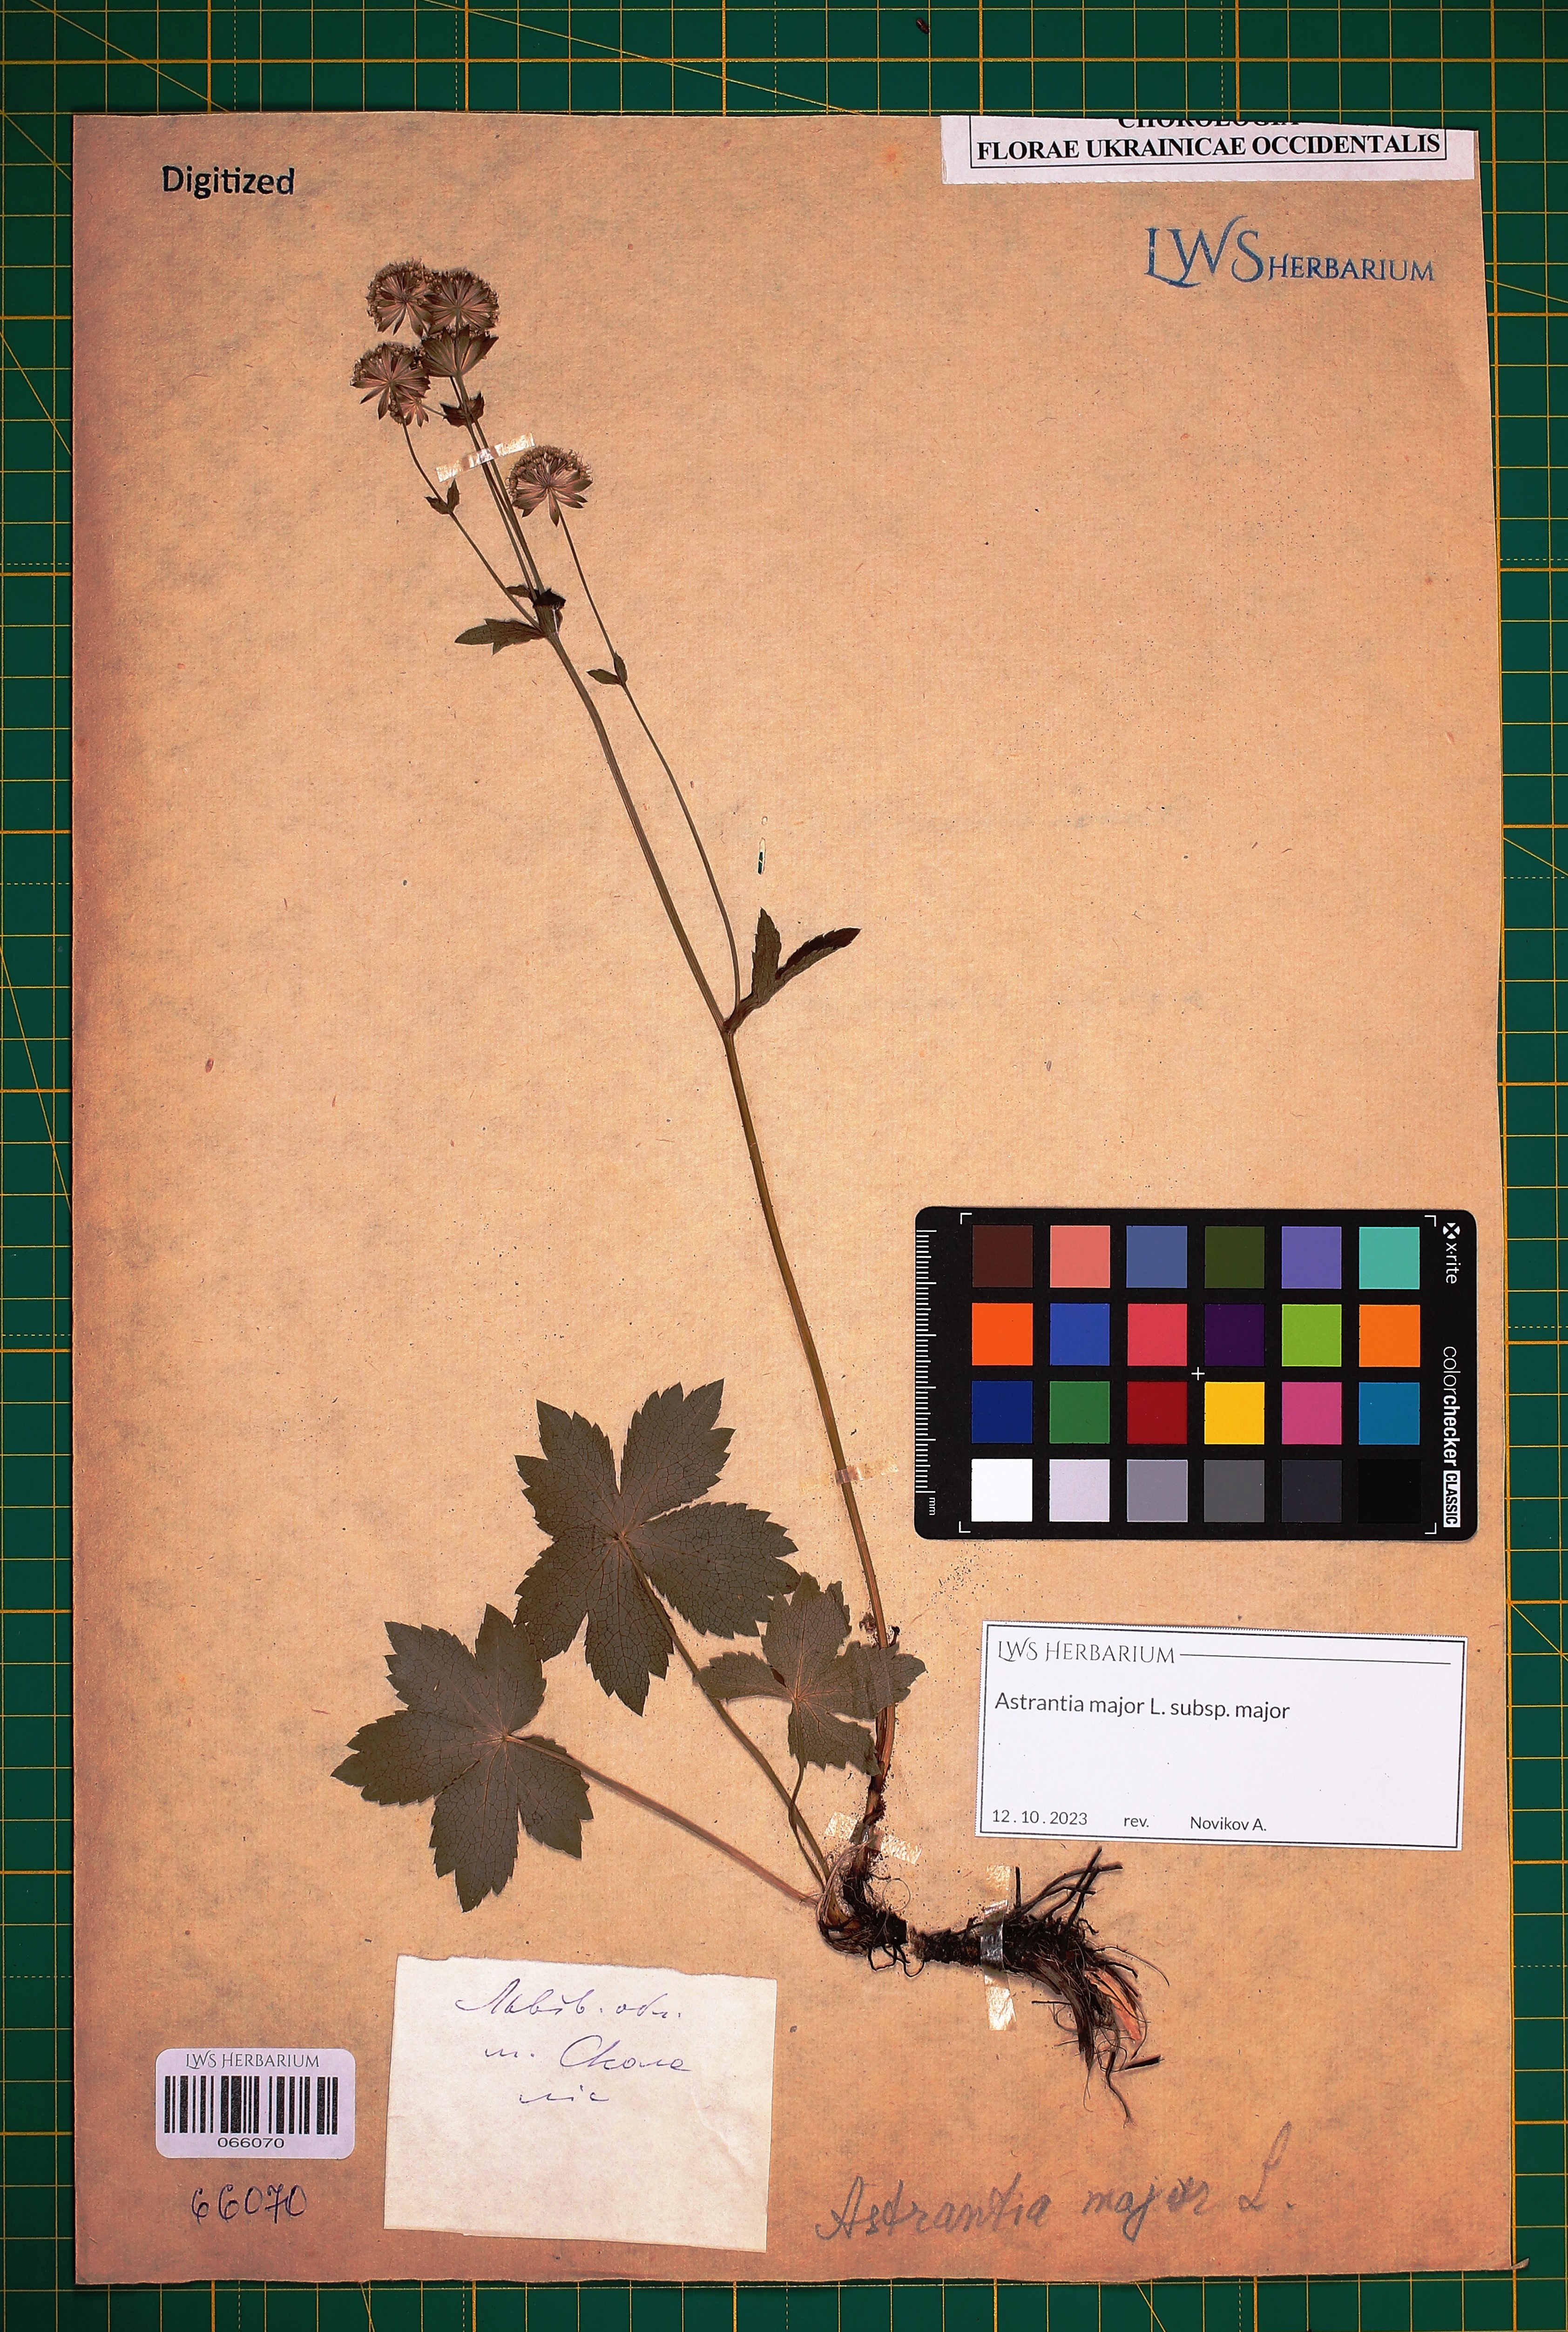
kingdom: Plantae
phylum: Tracheophyta
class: Magnoliopsida
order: Apiales
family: Apiaceae
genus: Astrantia
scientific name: Astrantia major
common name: Greater masterwort
